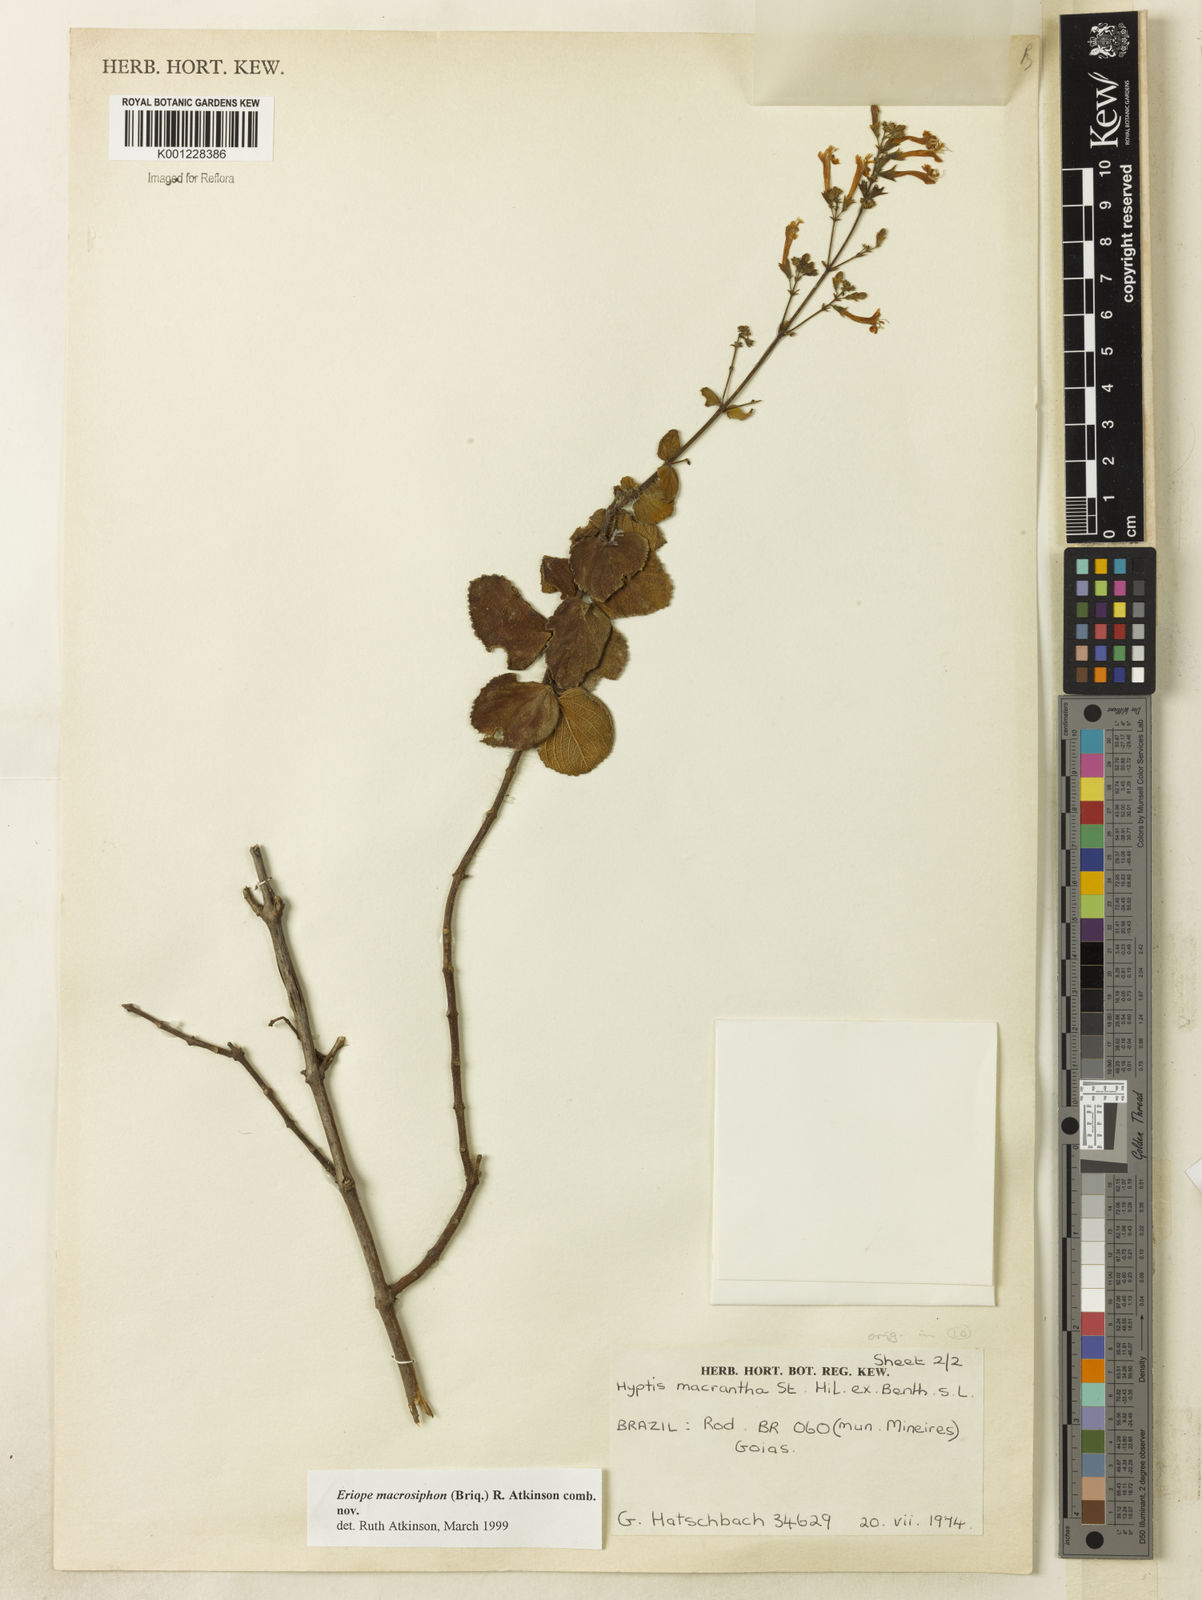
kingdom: Plantae
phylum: Tracheophyta
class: Magnoliopsida
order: Lamiales
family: Lamiaceae
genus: Hypenia
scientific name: Hypenia macrosiphon
